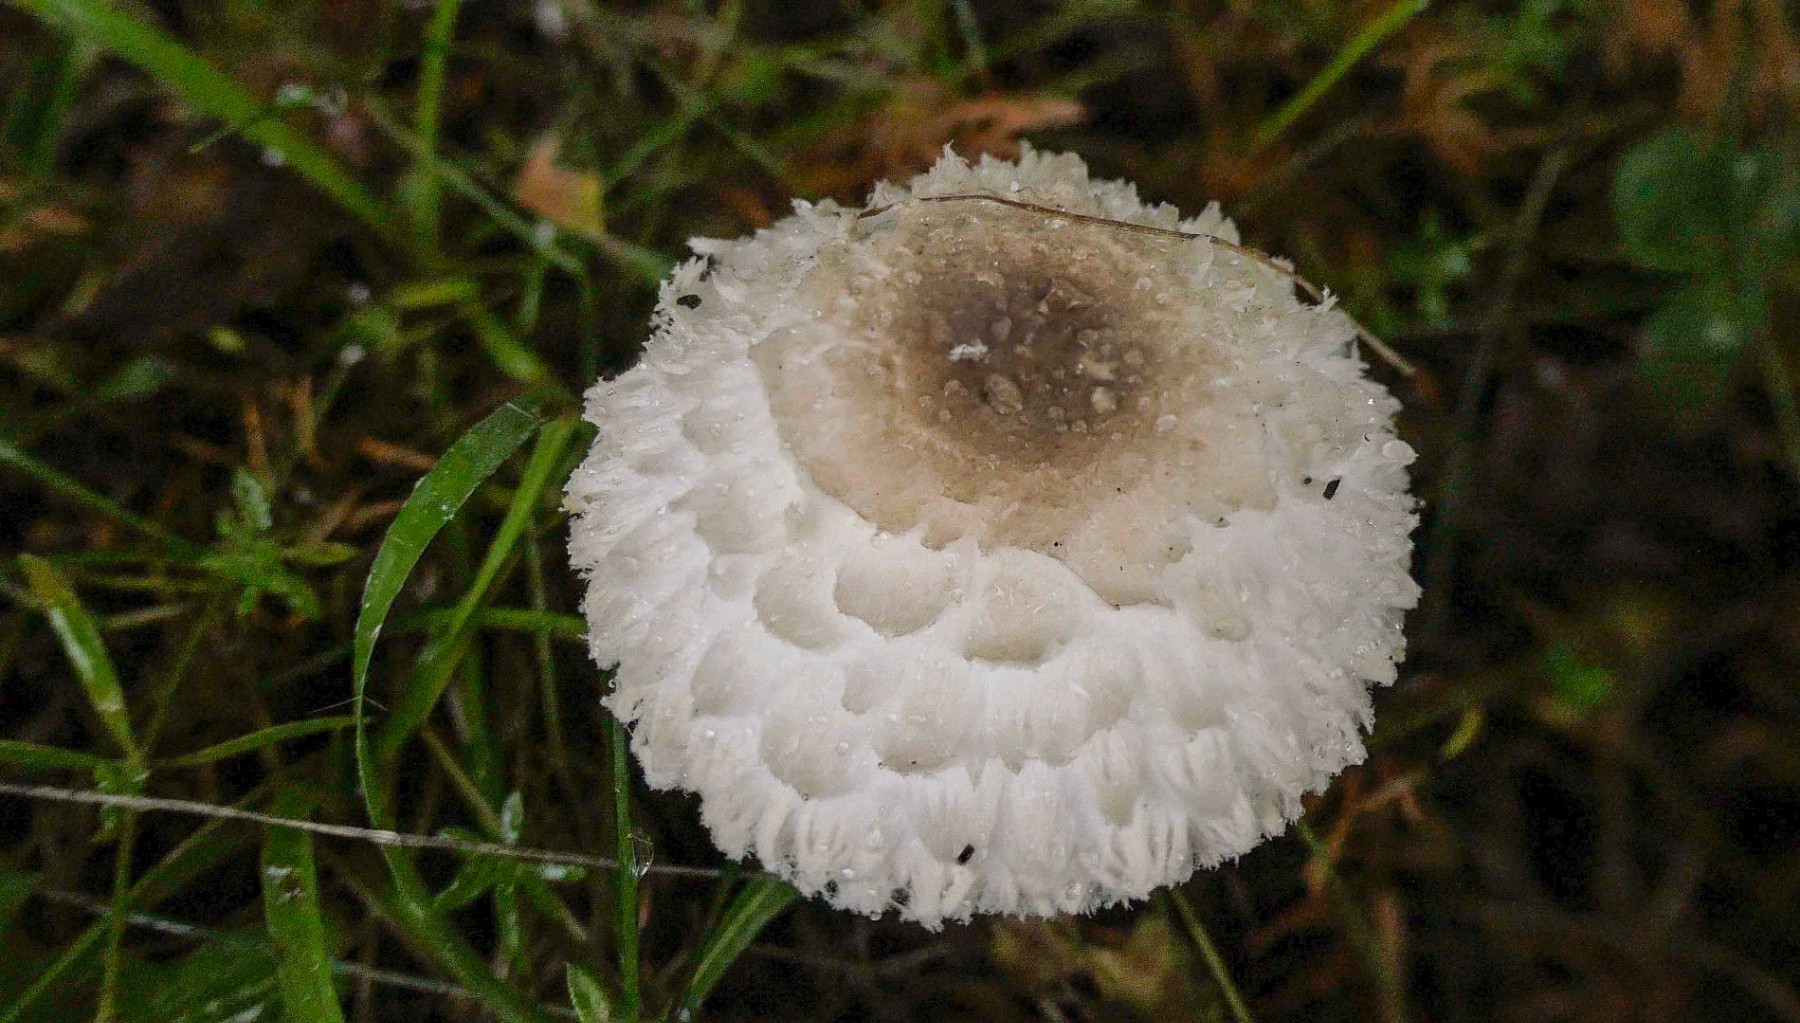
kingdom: Fungi
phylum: Basidiomycota
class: Agaricomycetes
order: Agaricales
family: Agaricaceae
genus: Leucoagaricus
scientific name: Leucoagaricus nympharum
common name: gran-silkehat
